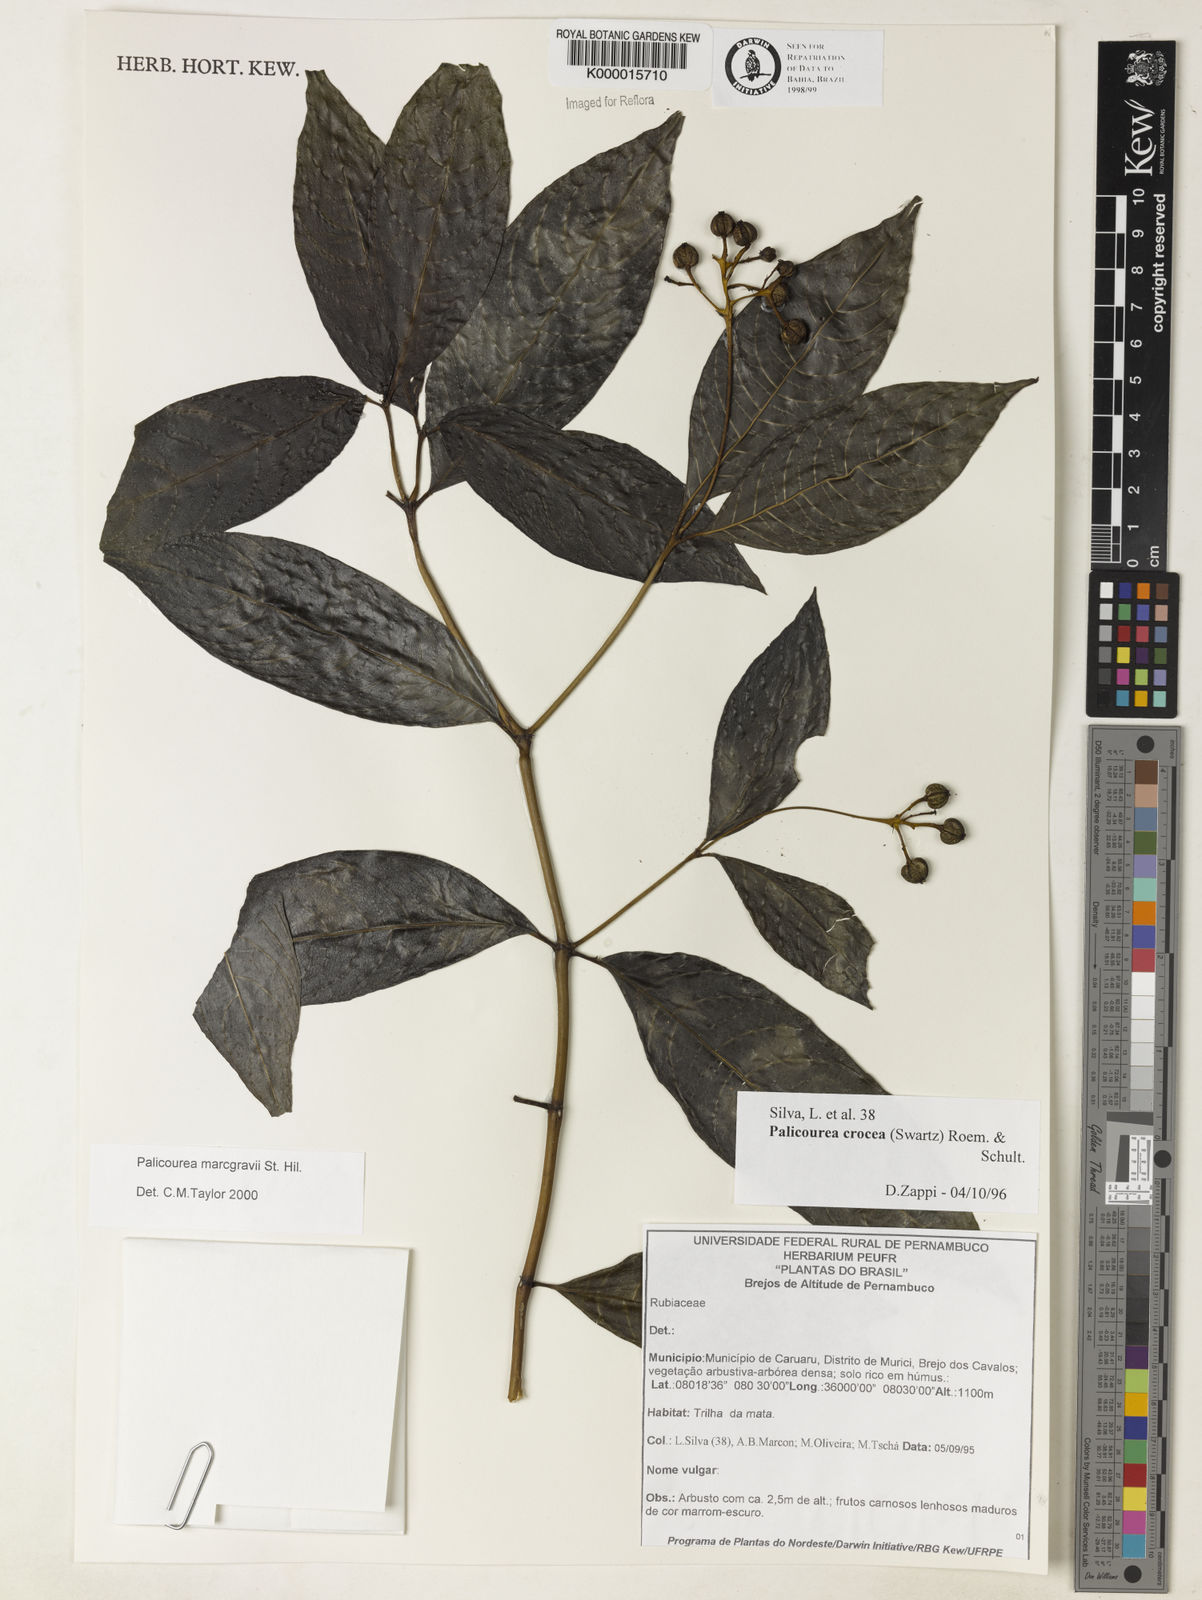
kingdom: Plantae
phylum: Tracheophyta
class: Magnoliopsida
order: Gentianales
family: Rubiaceae
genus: Palicourea
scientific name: Palicourea marcgravii
